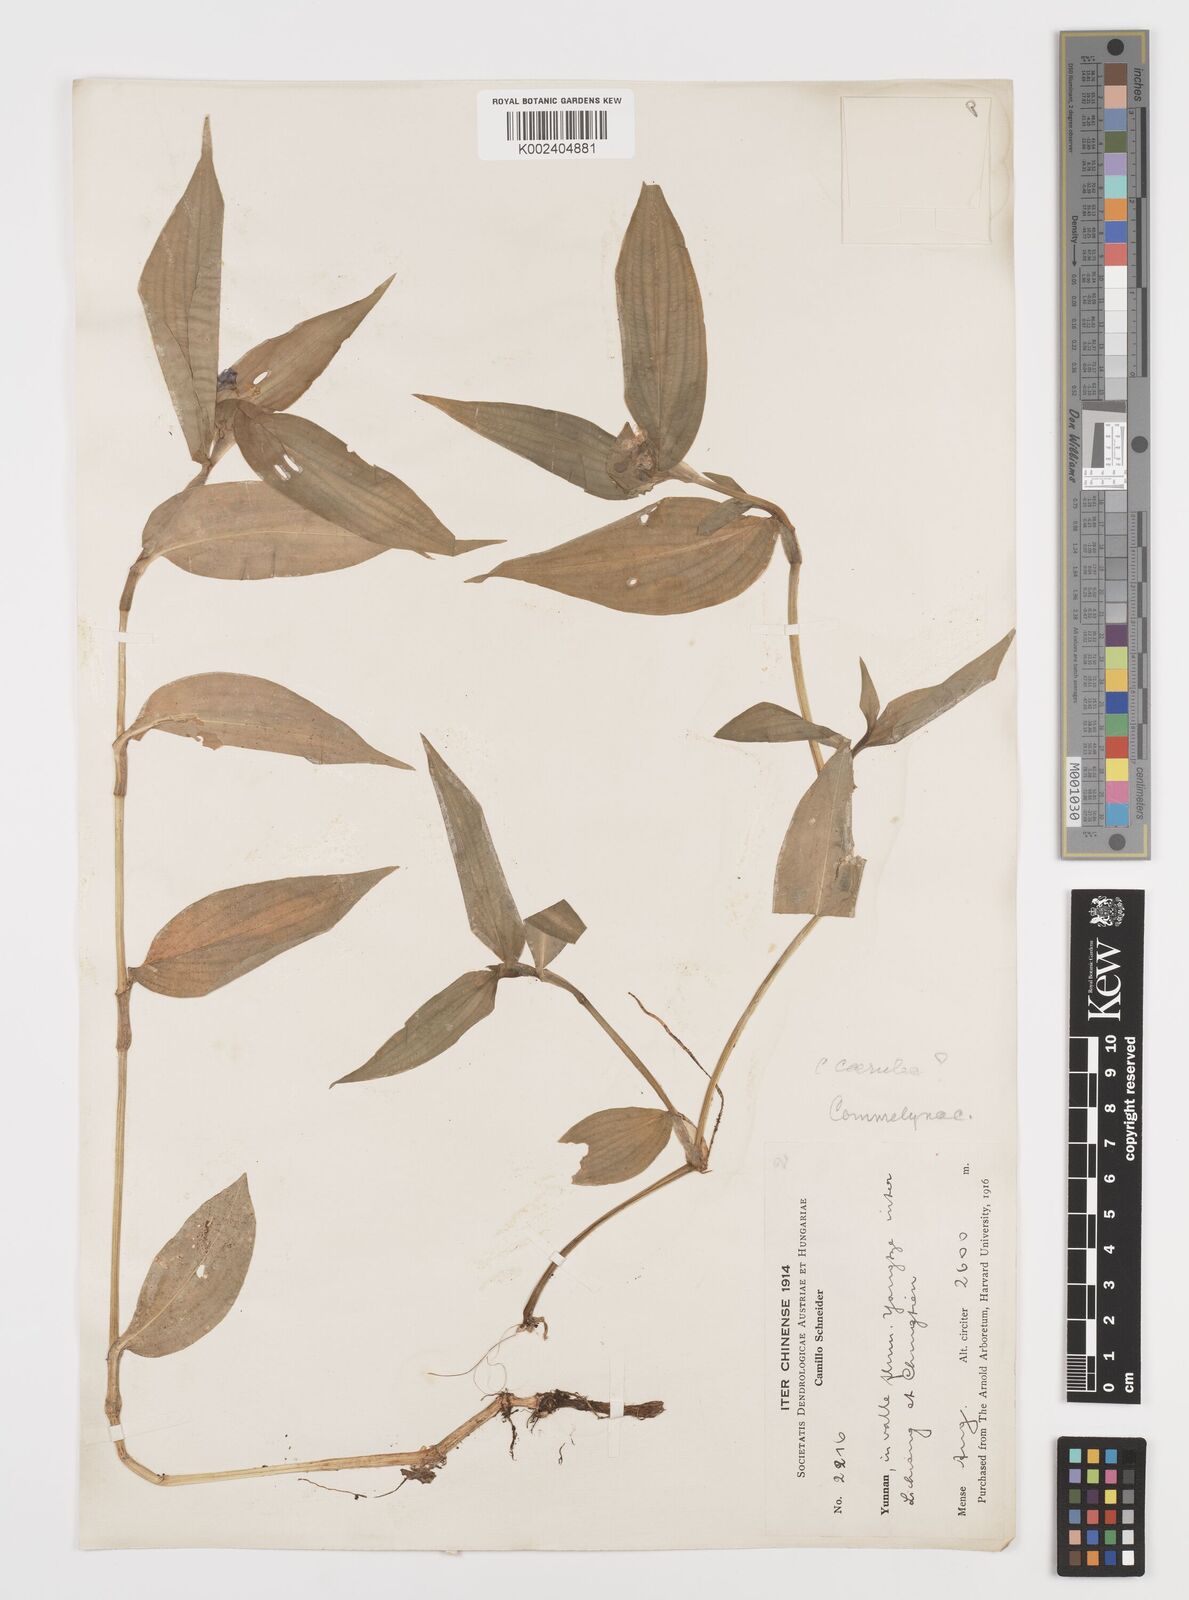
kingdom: Plantae
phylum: Tracheophyta
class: Liliopsida
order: Commelinales
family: Commelinaceae
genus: Commelina
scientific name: Commelina
